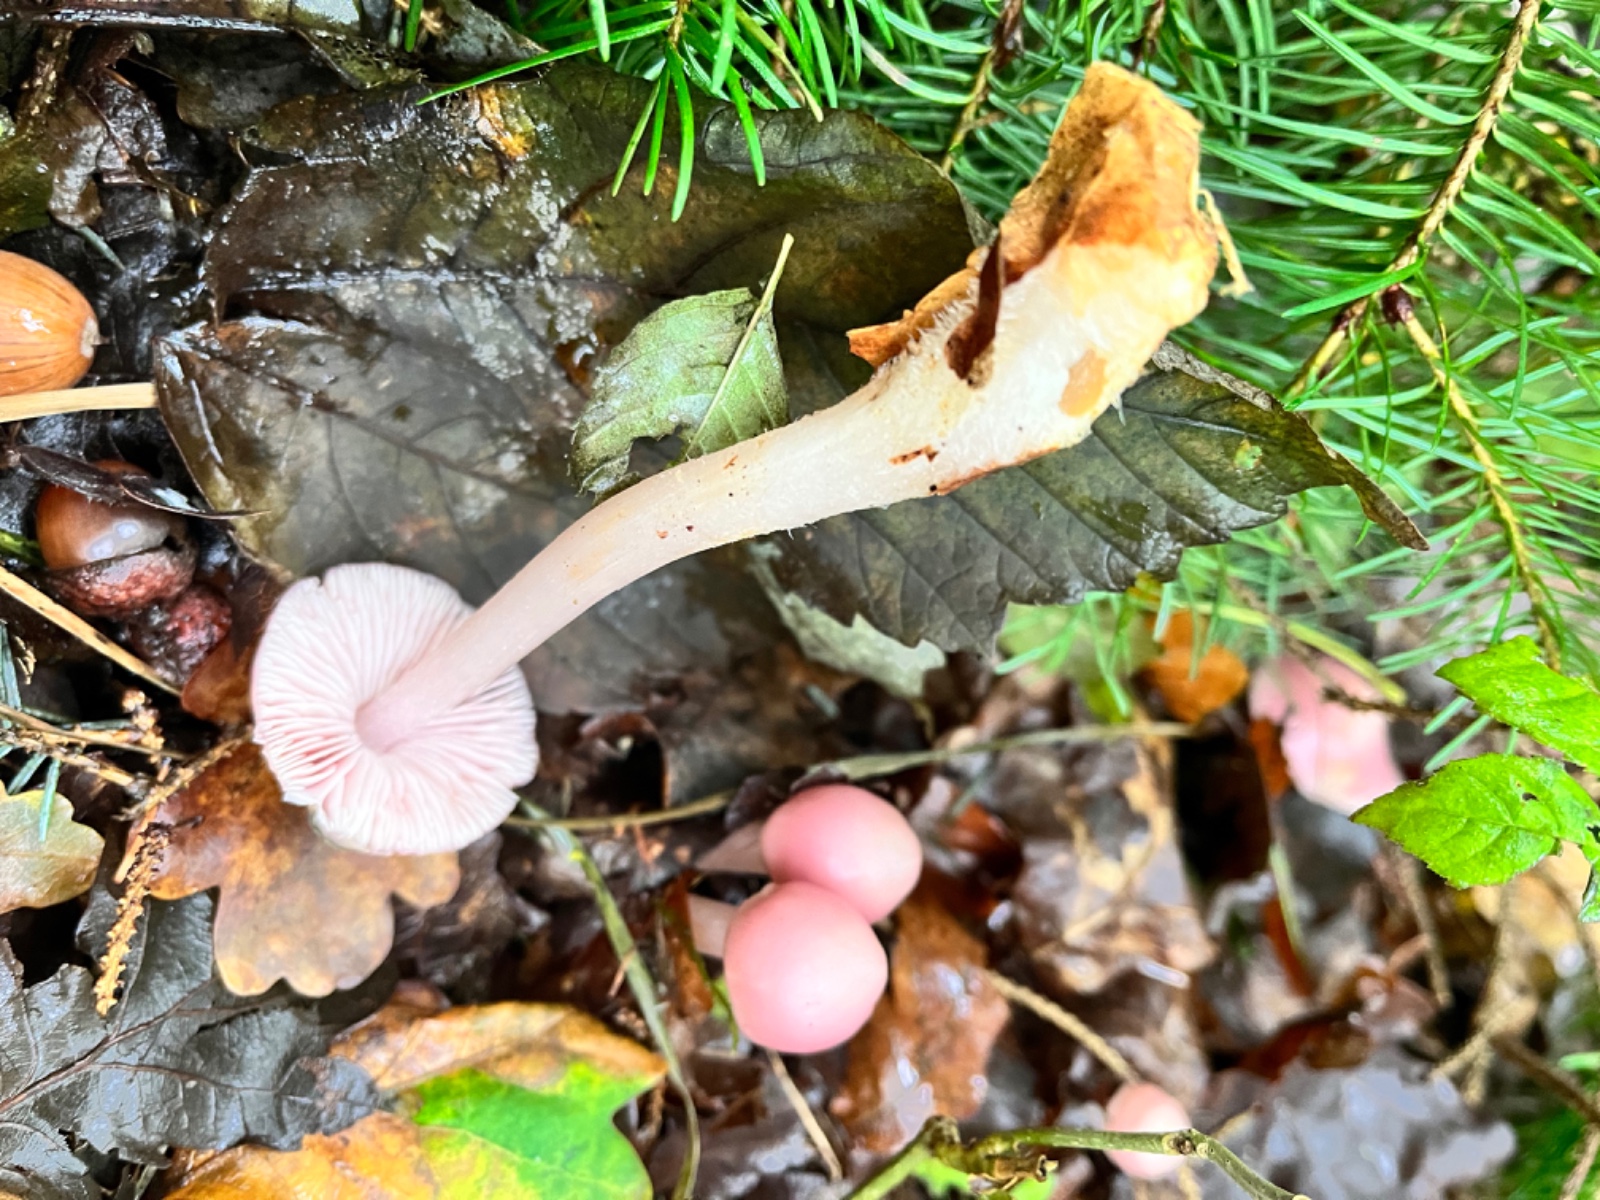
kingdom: Fungi
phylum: Basidiomycota
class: Agaricomycetes
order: Agaricales
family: Mycenaceae
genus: Mycena
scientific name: Mycena rosea
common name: rosa huesvamp
